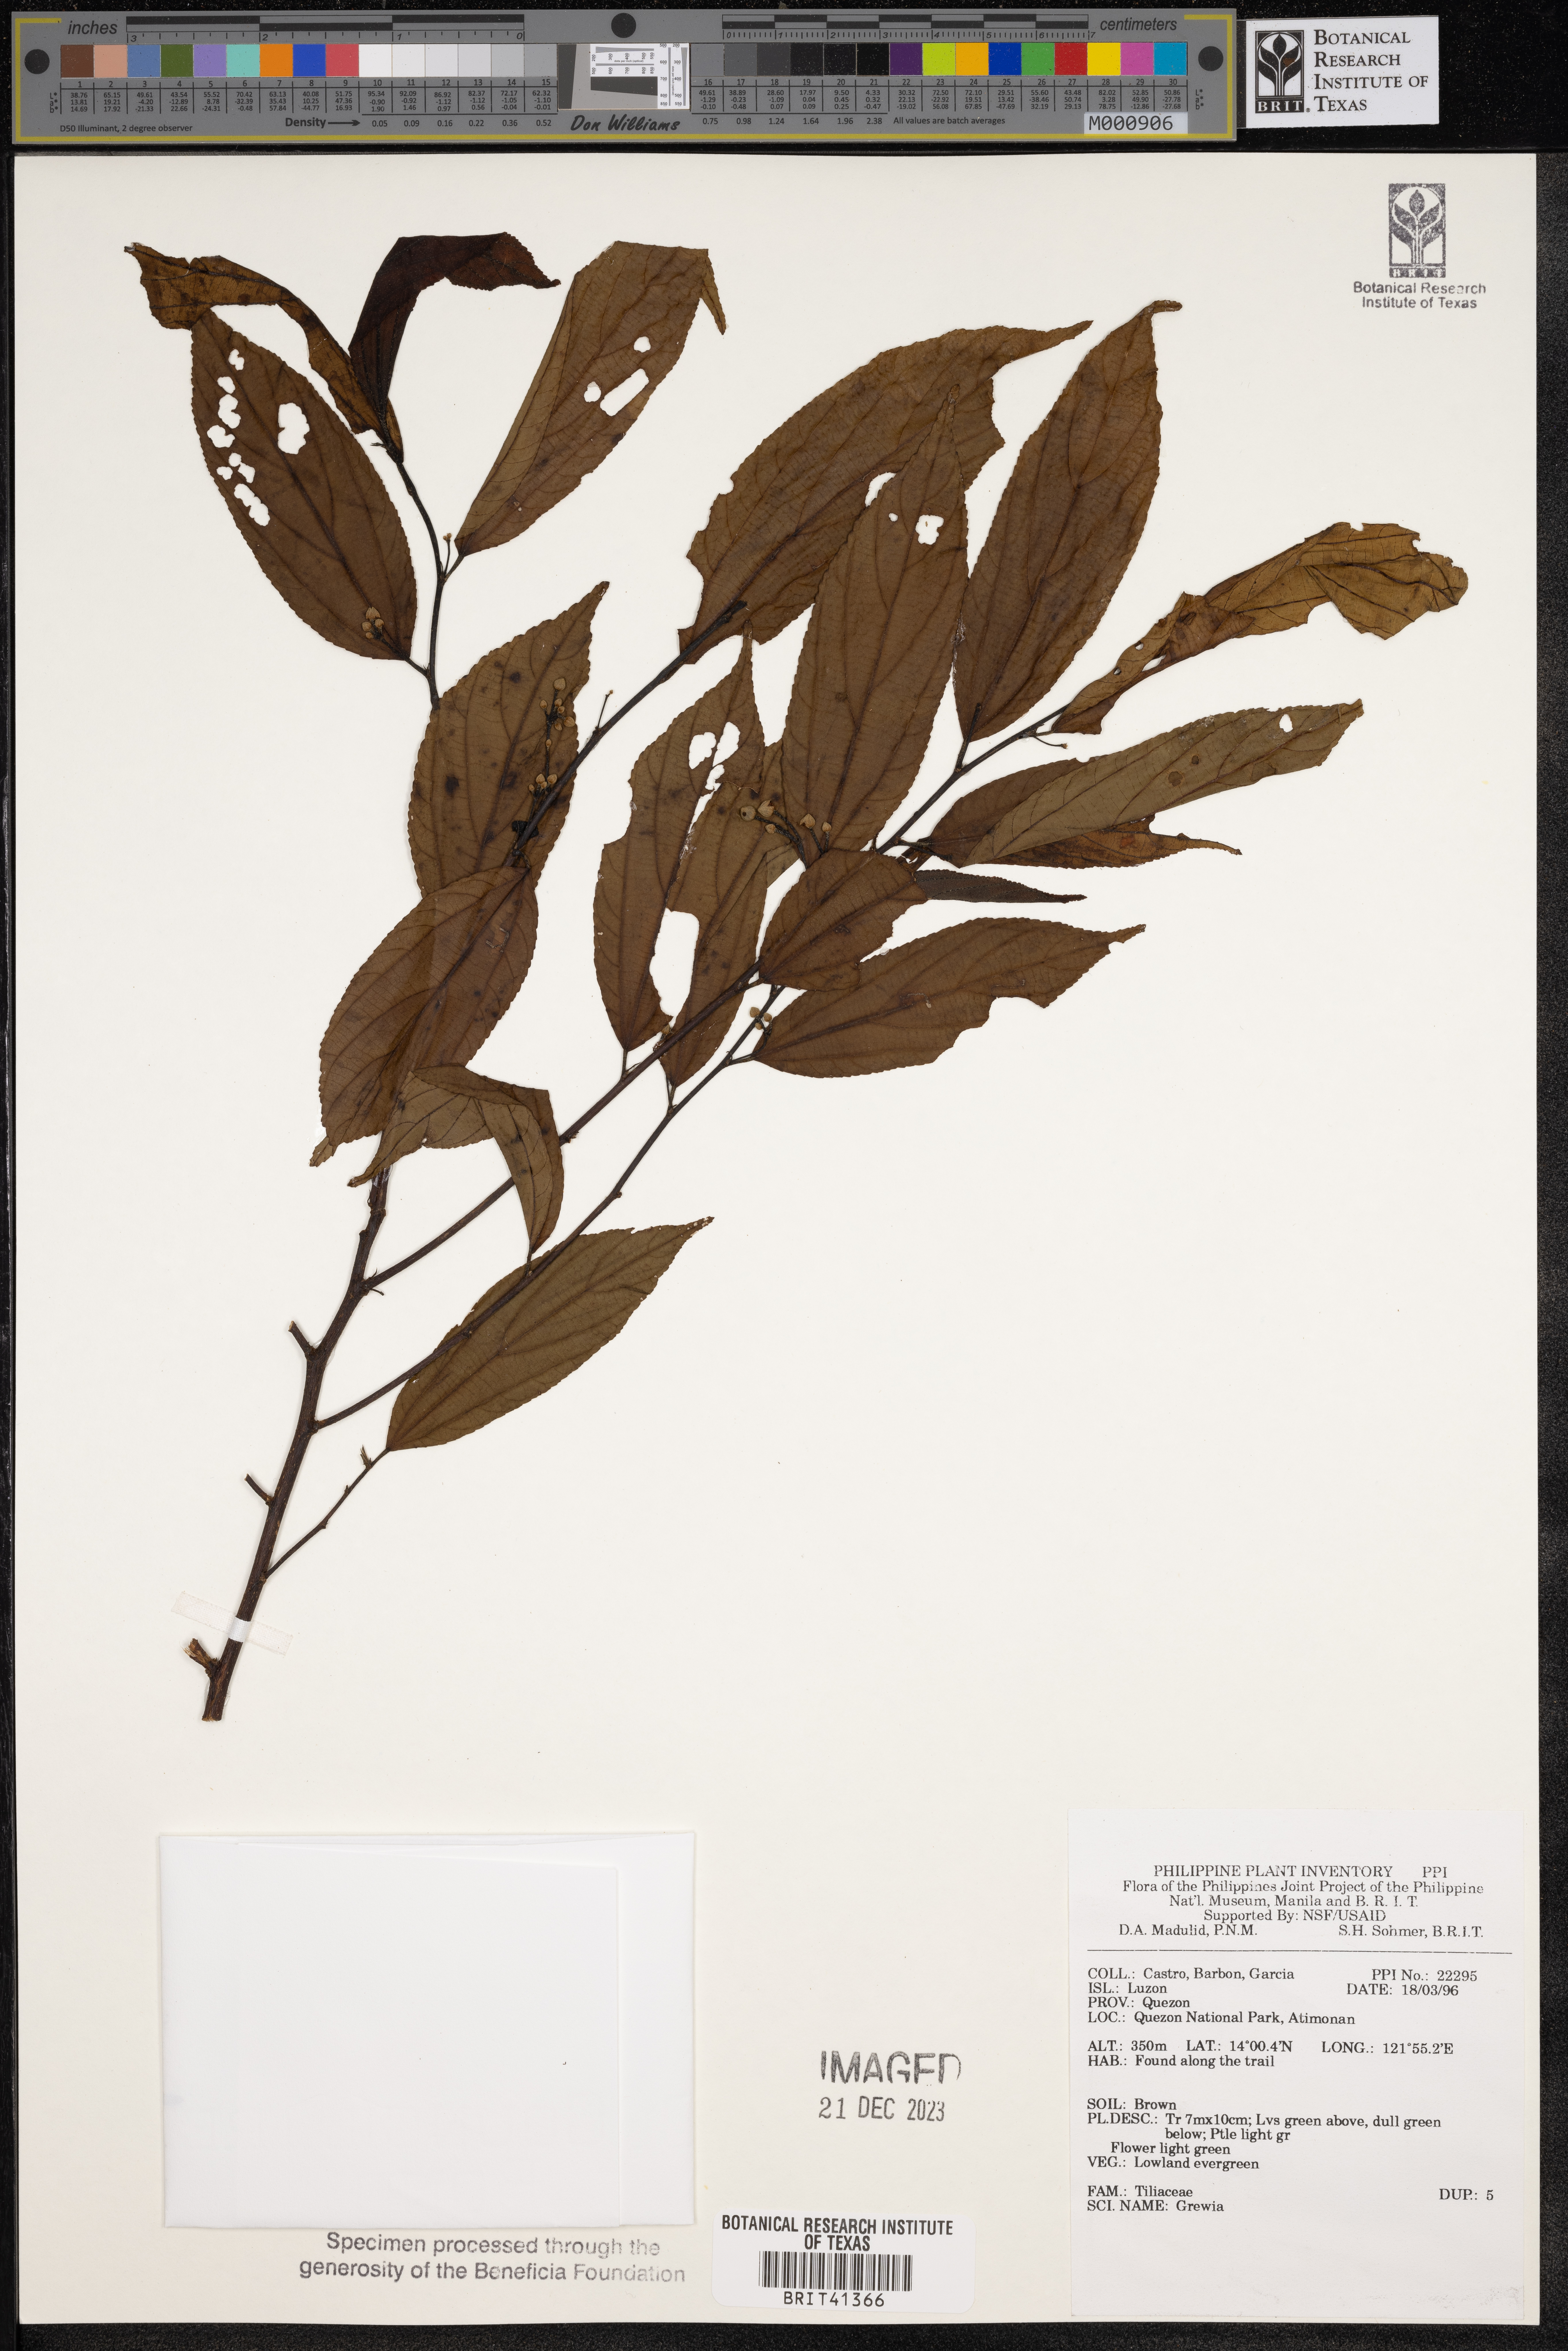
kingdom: Plantae
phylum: Tracheophyta
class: Magnoliopsida
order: Malvales
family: Malvaceae
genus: Grewia
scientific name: Grewia
